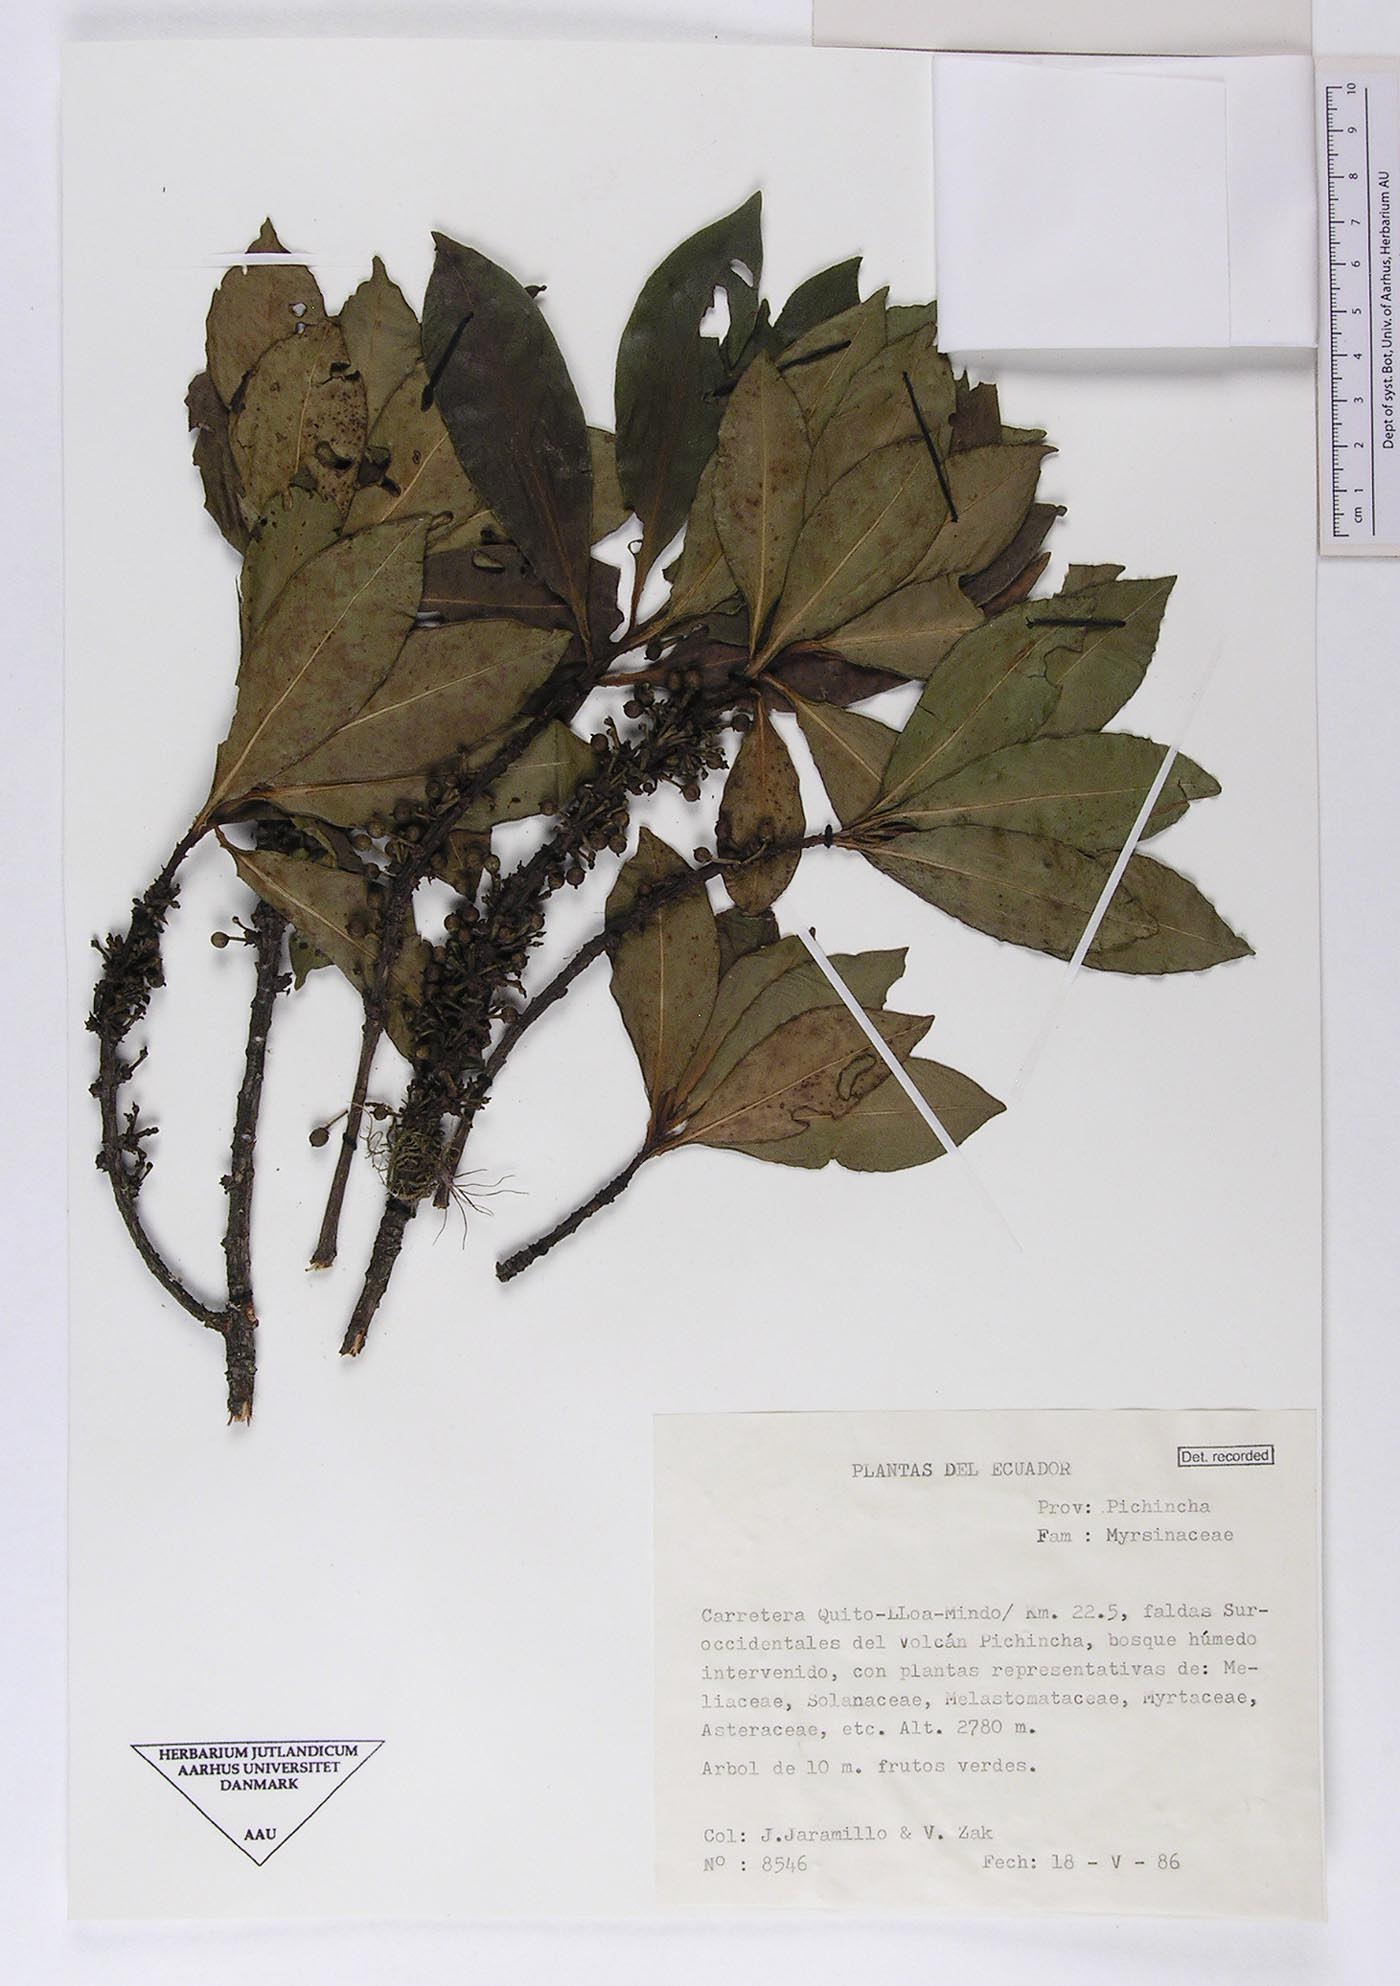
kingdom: Plantae
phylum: Tracheophyta
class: Magnoliopsida
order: Ericales
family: Primulaceae
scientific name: Primulaceae
